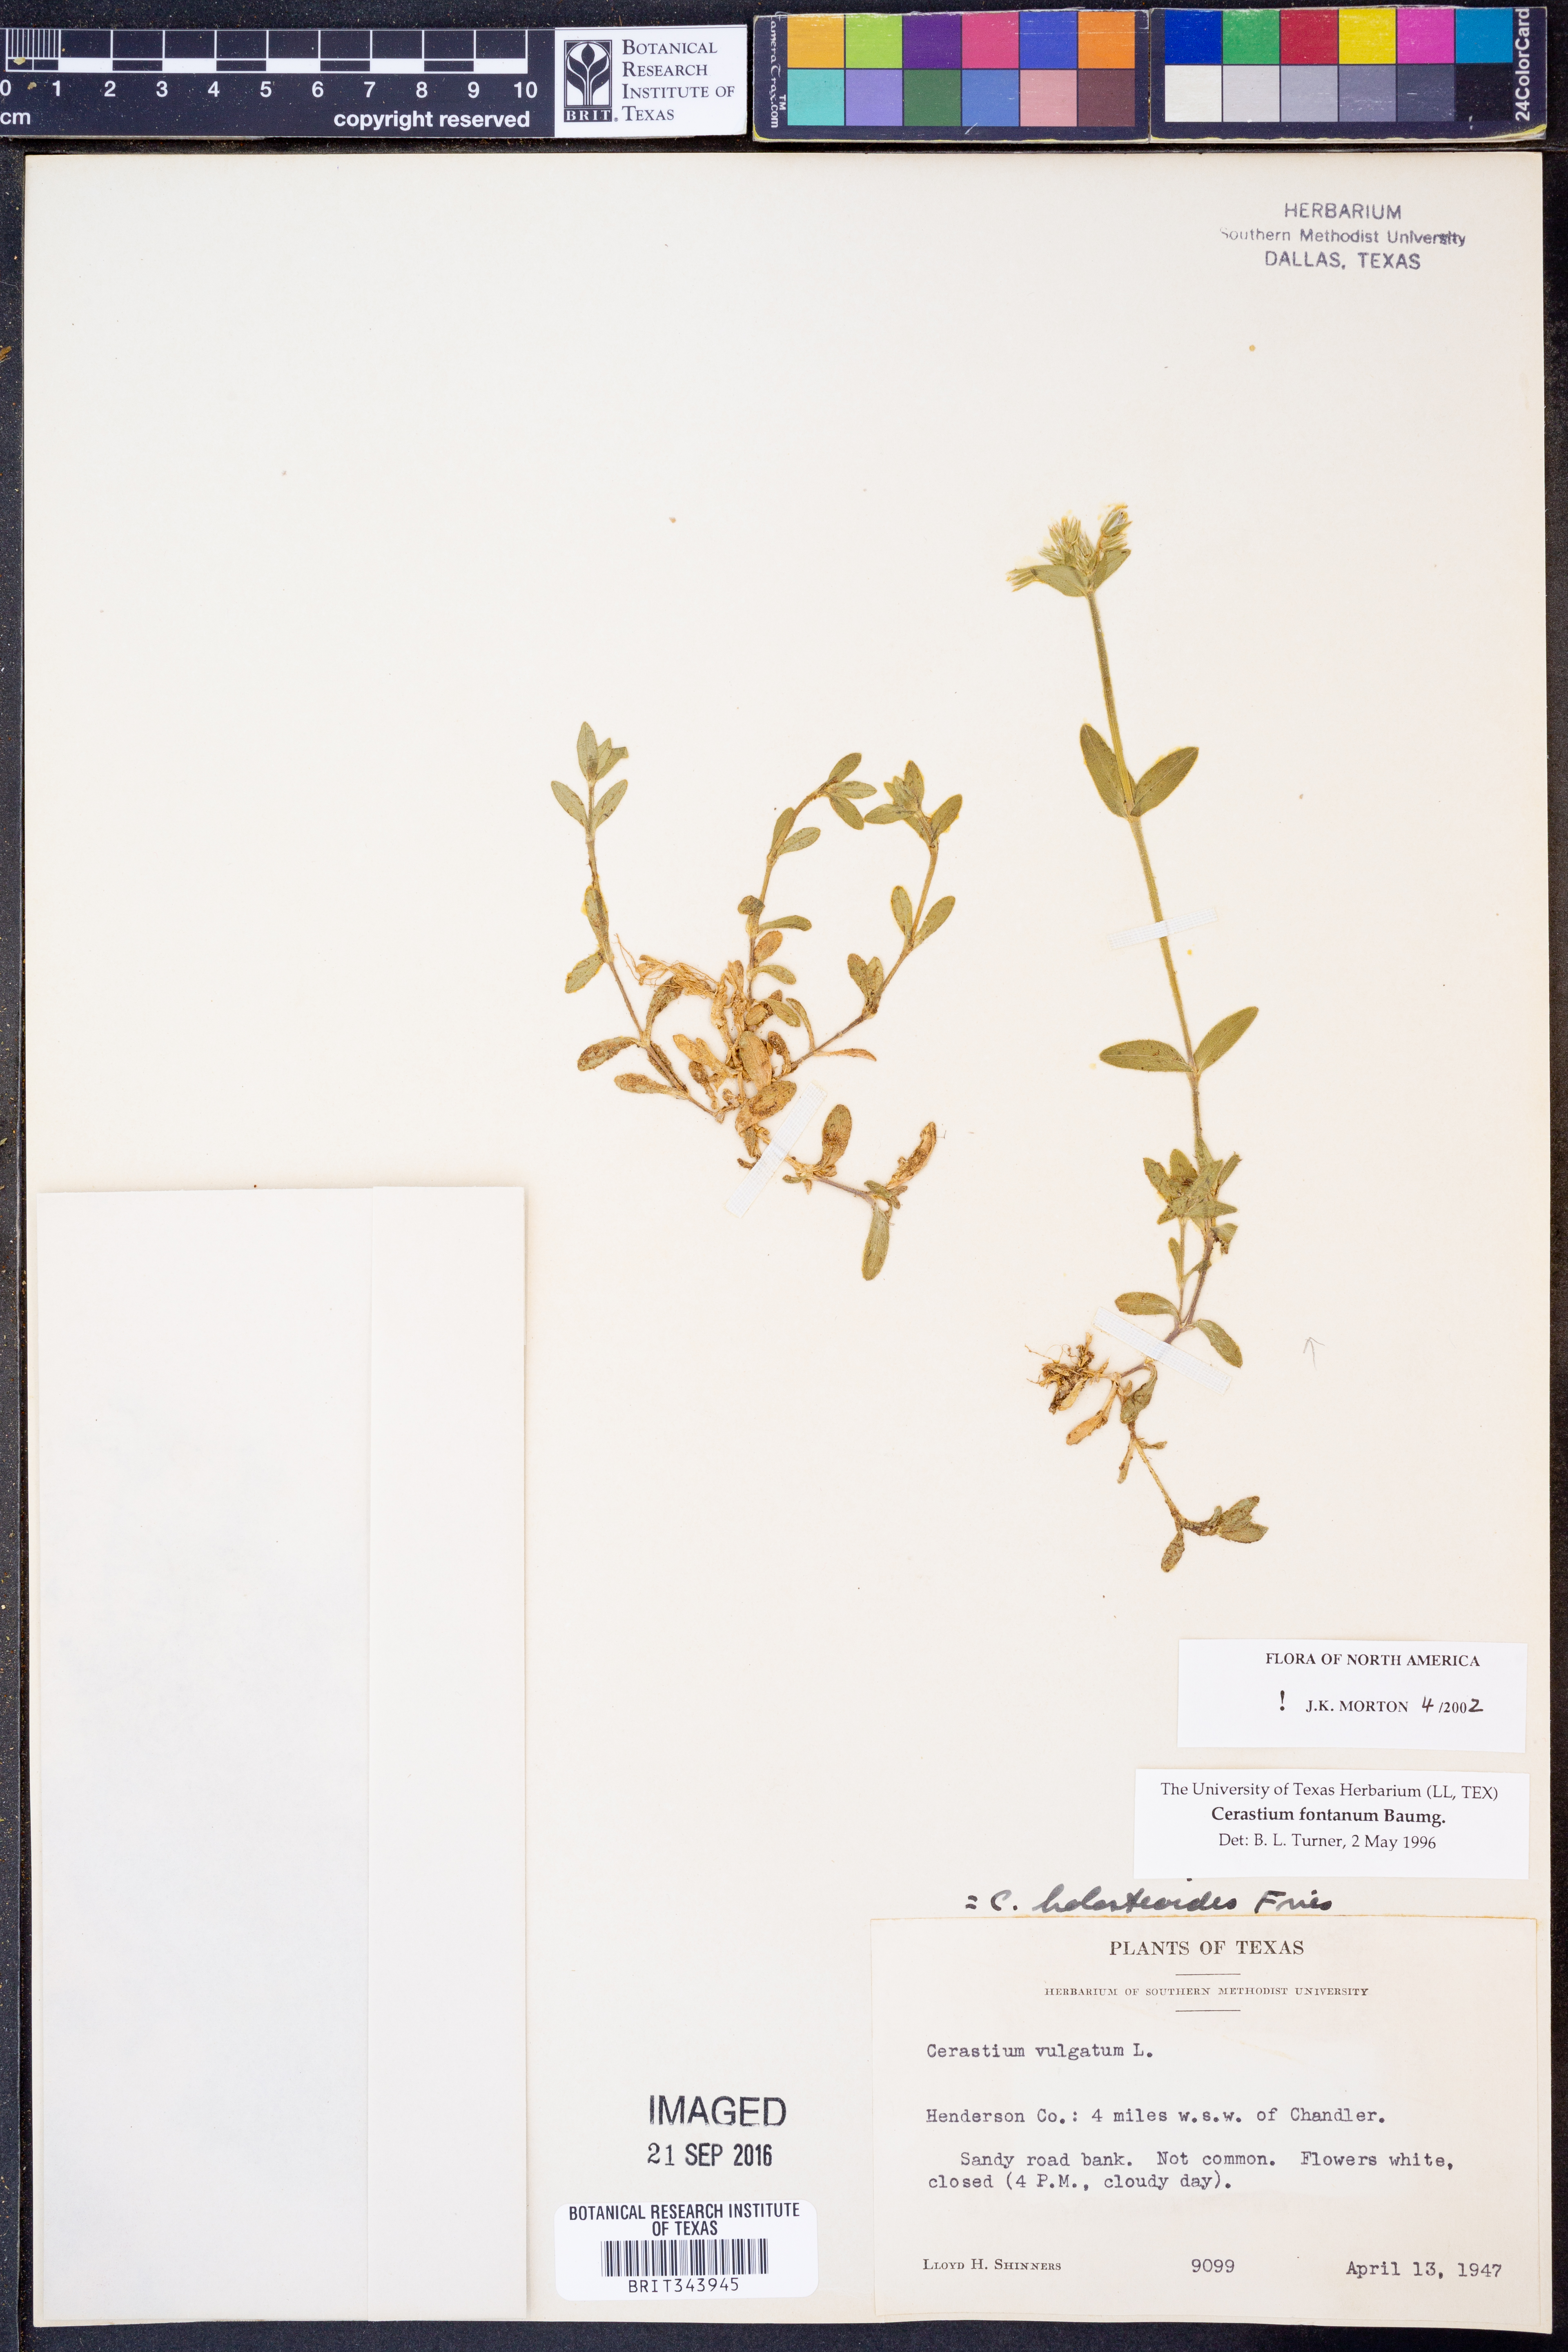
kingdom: Plantae
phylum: Tracheophyta
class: Magnoliopsida
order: Caryophyllales
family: Caryophyllaceae
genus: Cerastium
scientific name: Cerastium fontanum
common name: Common mouse-ear
